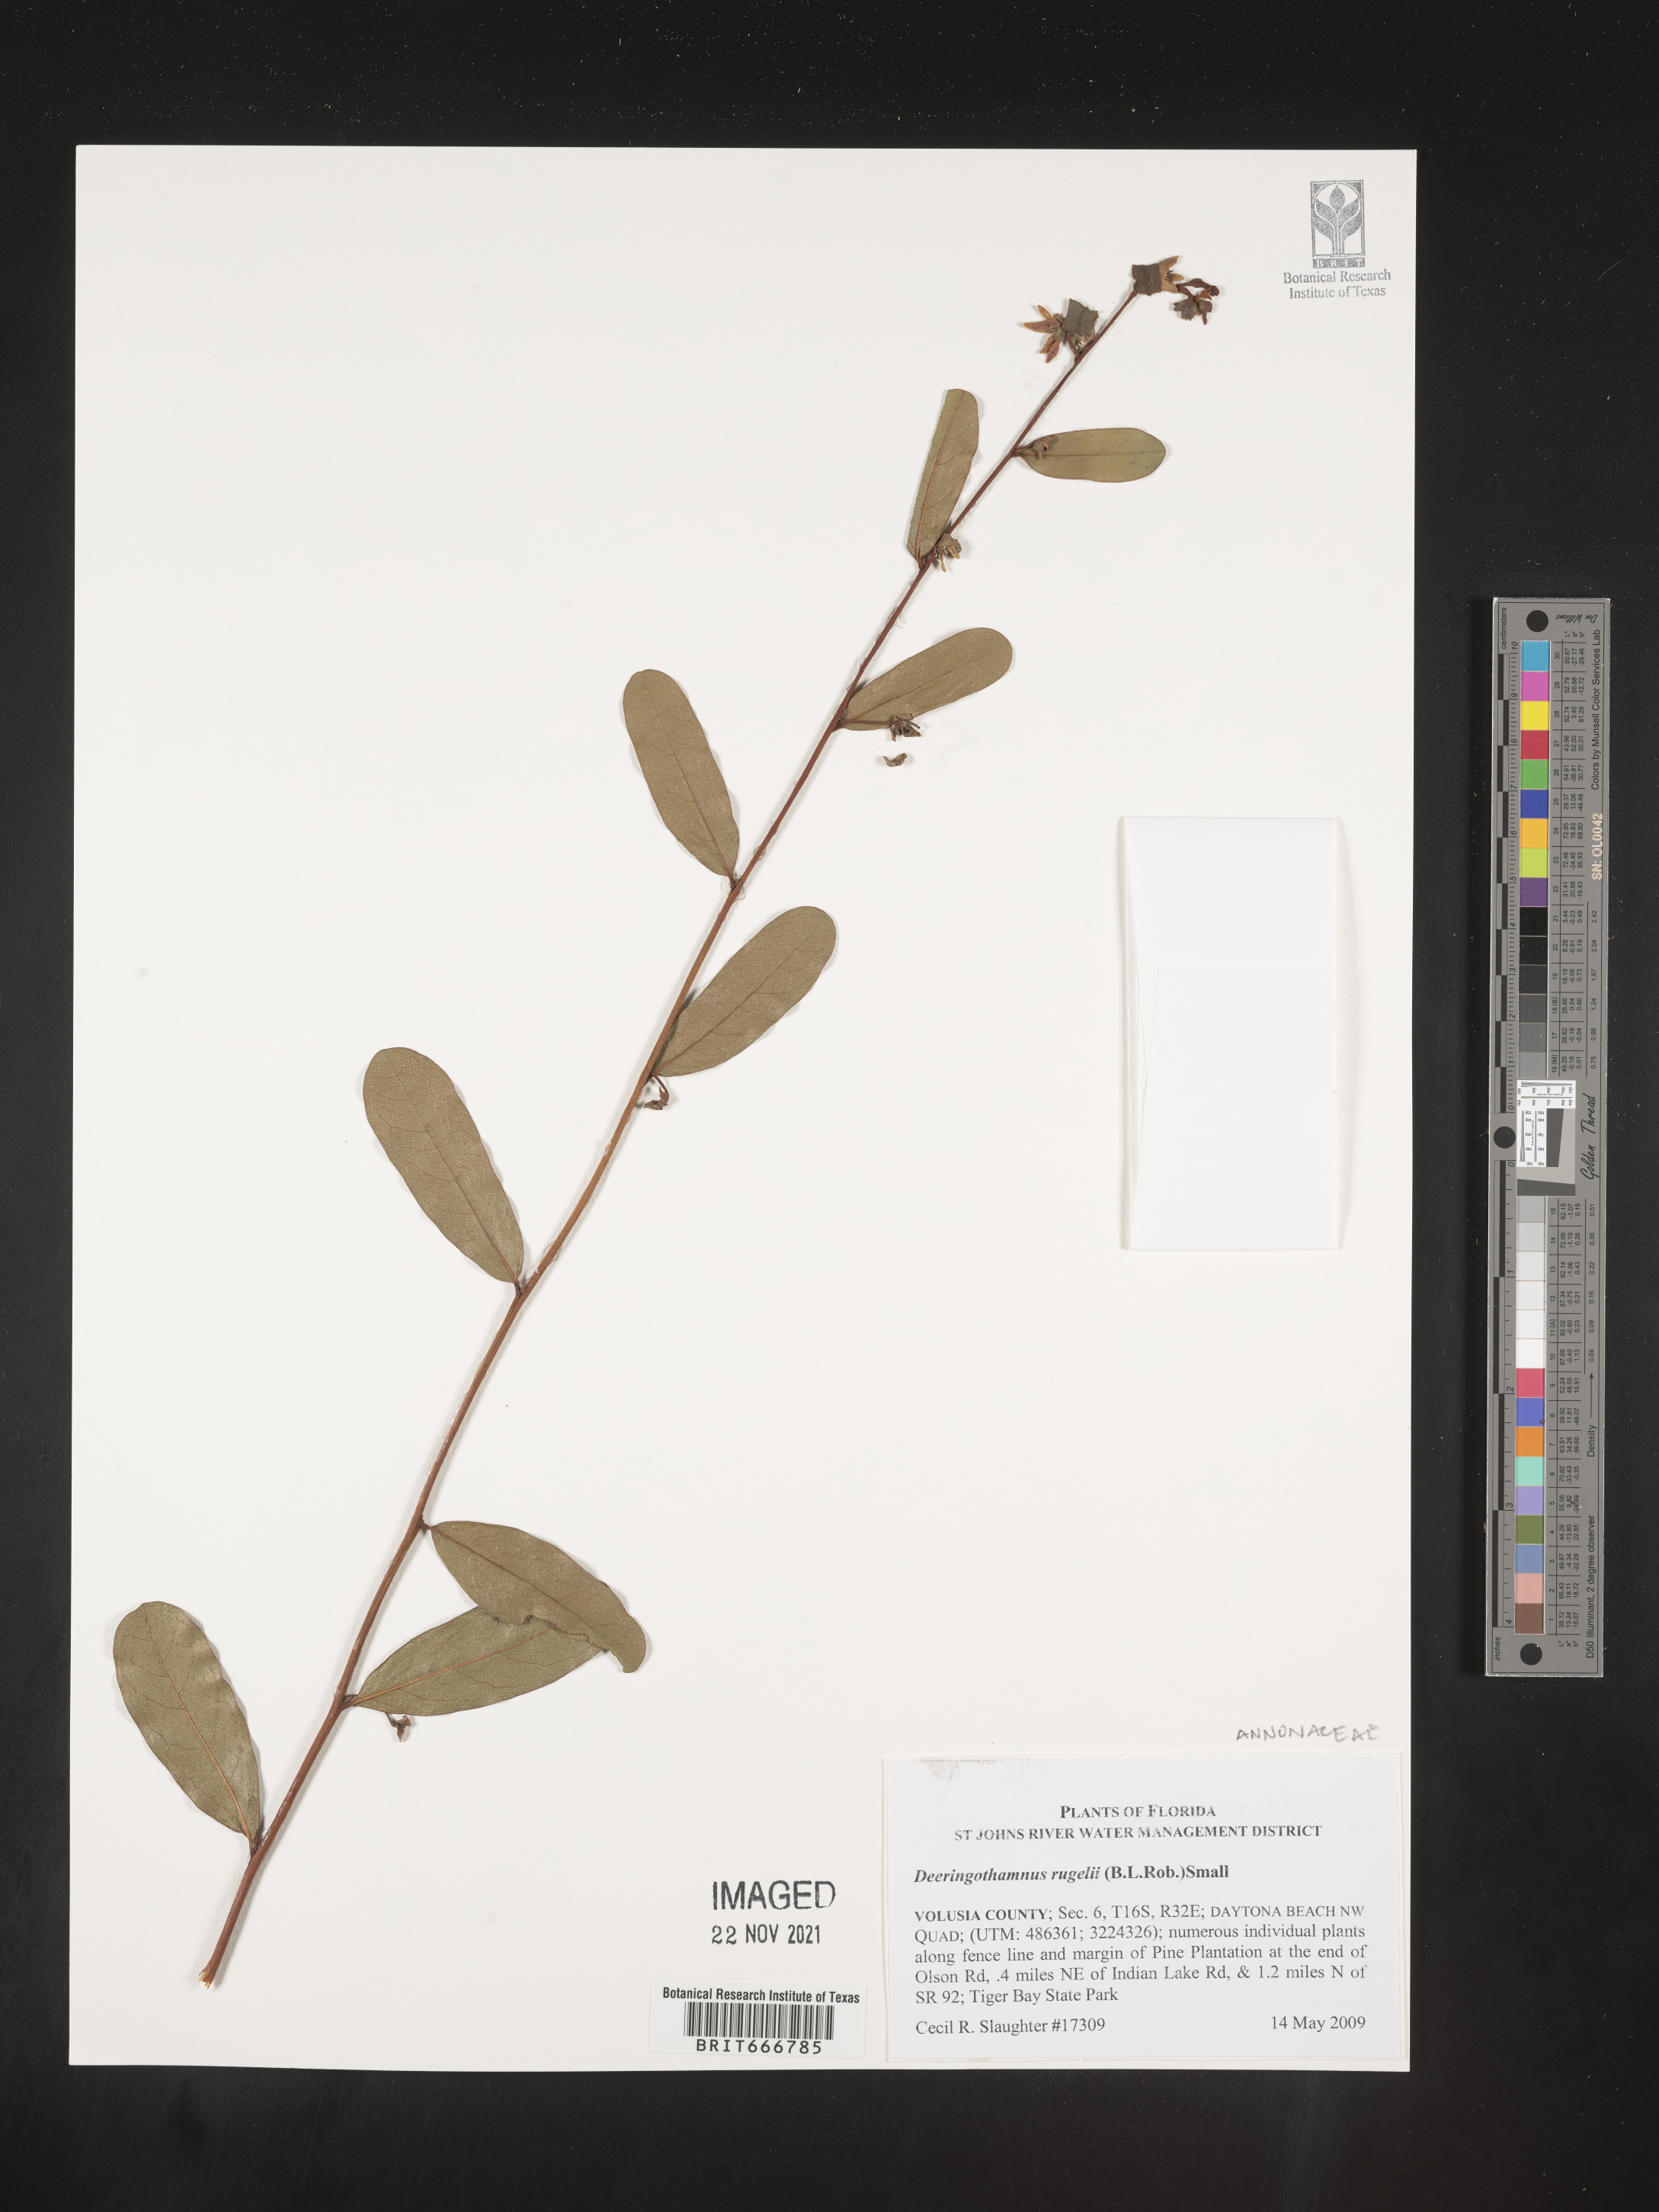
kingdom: Plantae
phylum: Tracheophyta
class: Magnoliopsida
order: Magnoliales
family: Annonaceae
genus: Deeringothamnus
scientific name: Deeringothamnus
